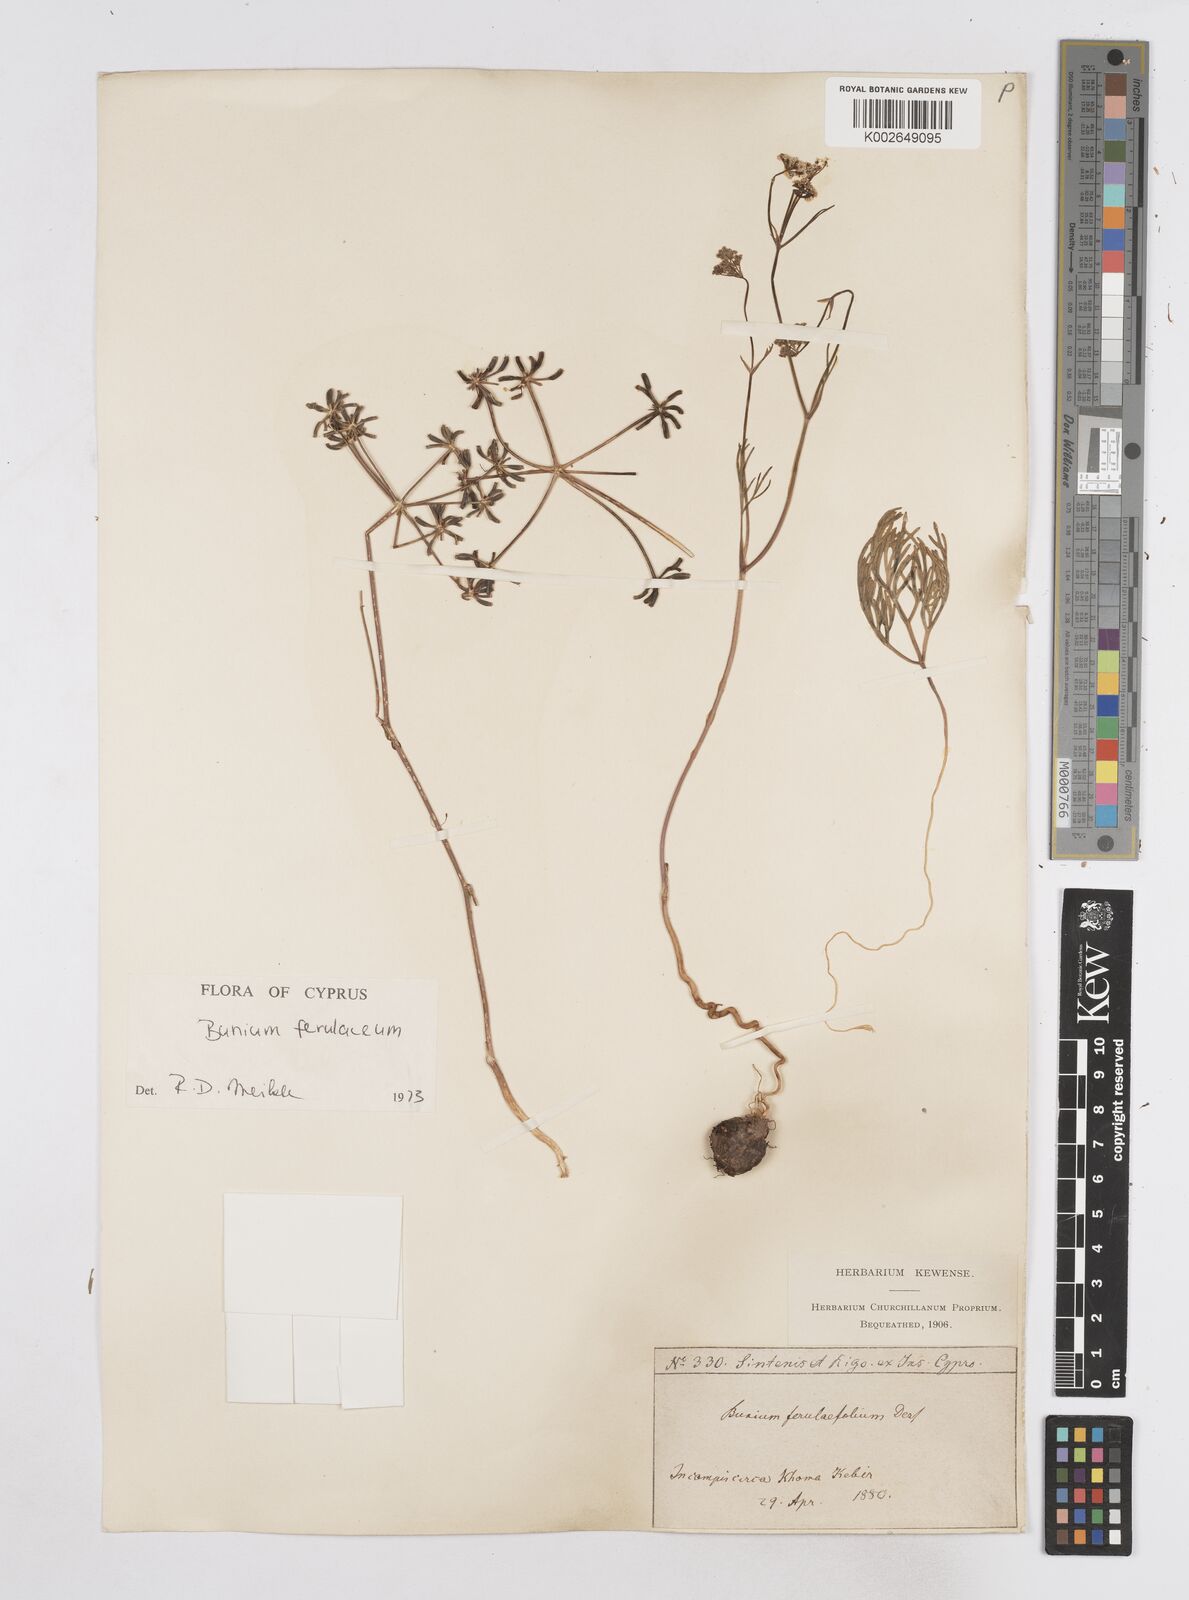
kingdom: Plantae
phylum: Tracheophyta
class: Magnoliopsida
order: Apiales
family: Apiaceae
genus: Bunium
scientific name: Bunium ferulaceum
